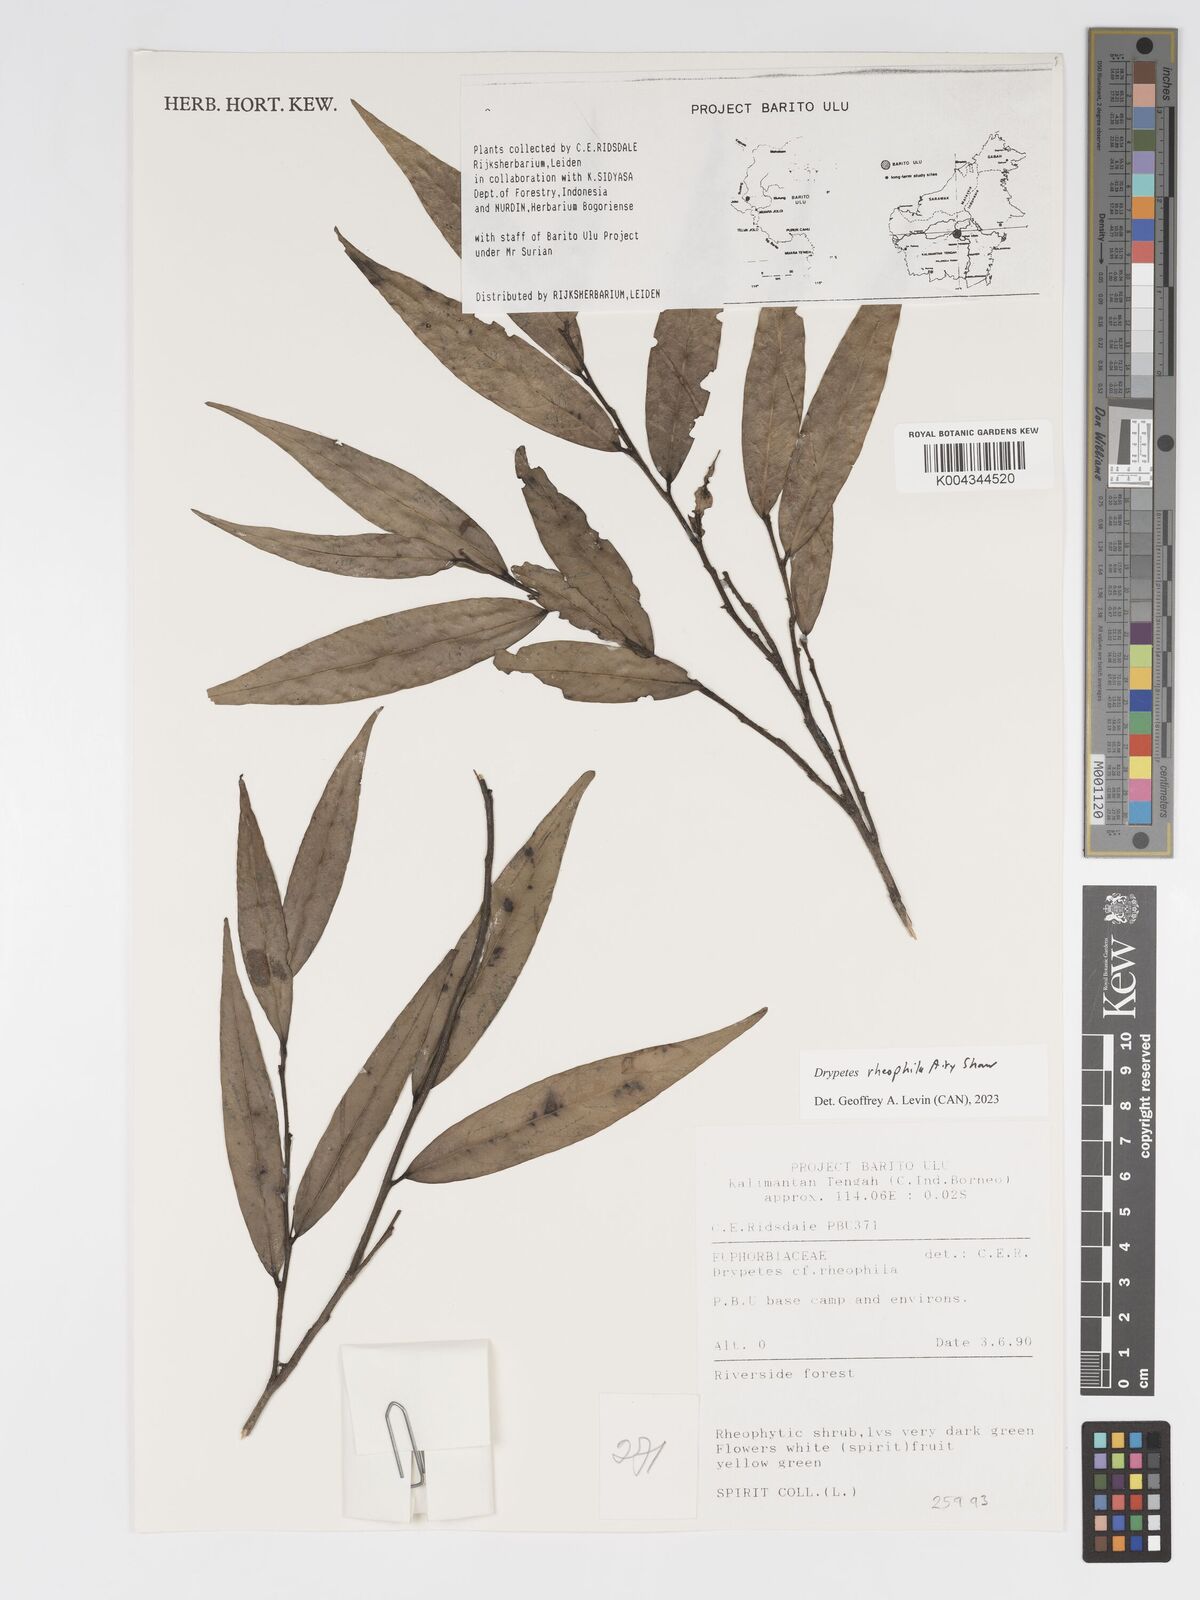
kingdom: Plantae
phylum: Tracheophyta
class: Magnoliopsida
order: Malpighiales
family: Putranjivaceae
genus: Drypetes
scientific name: Drypetes rhakodiskos
